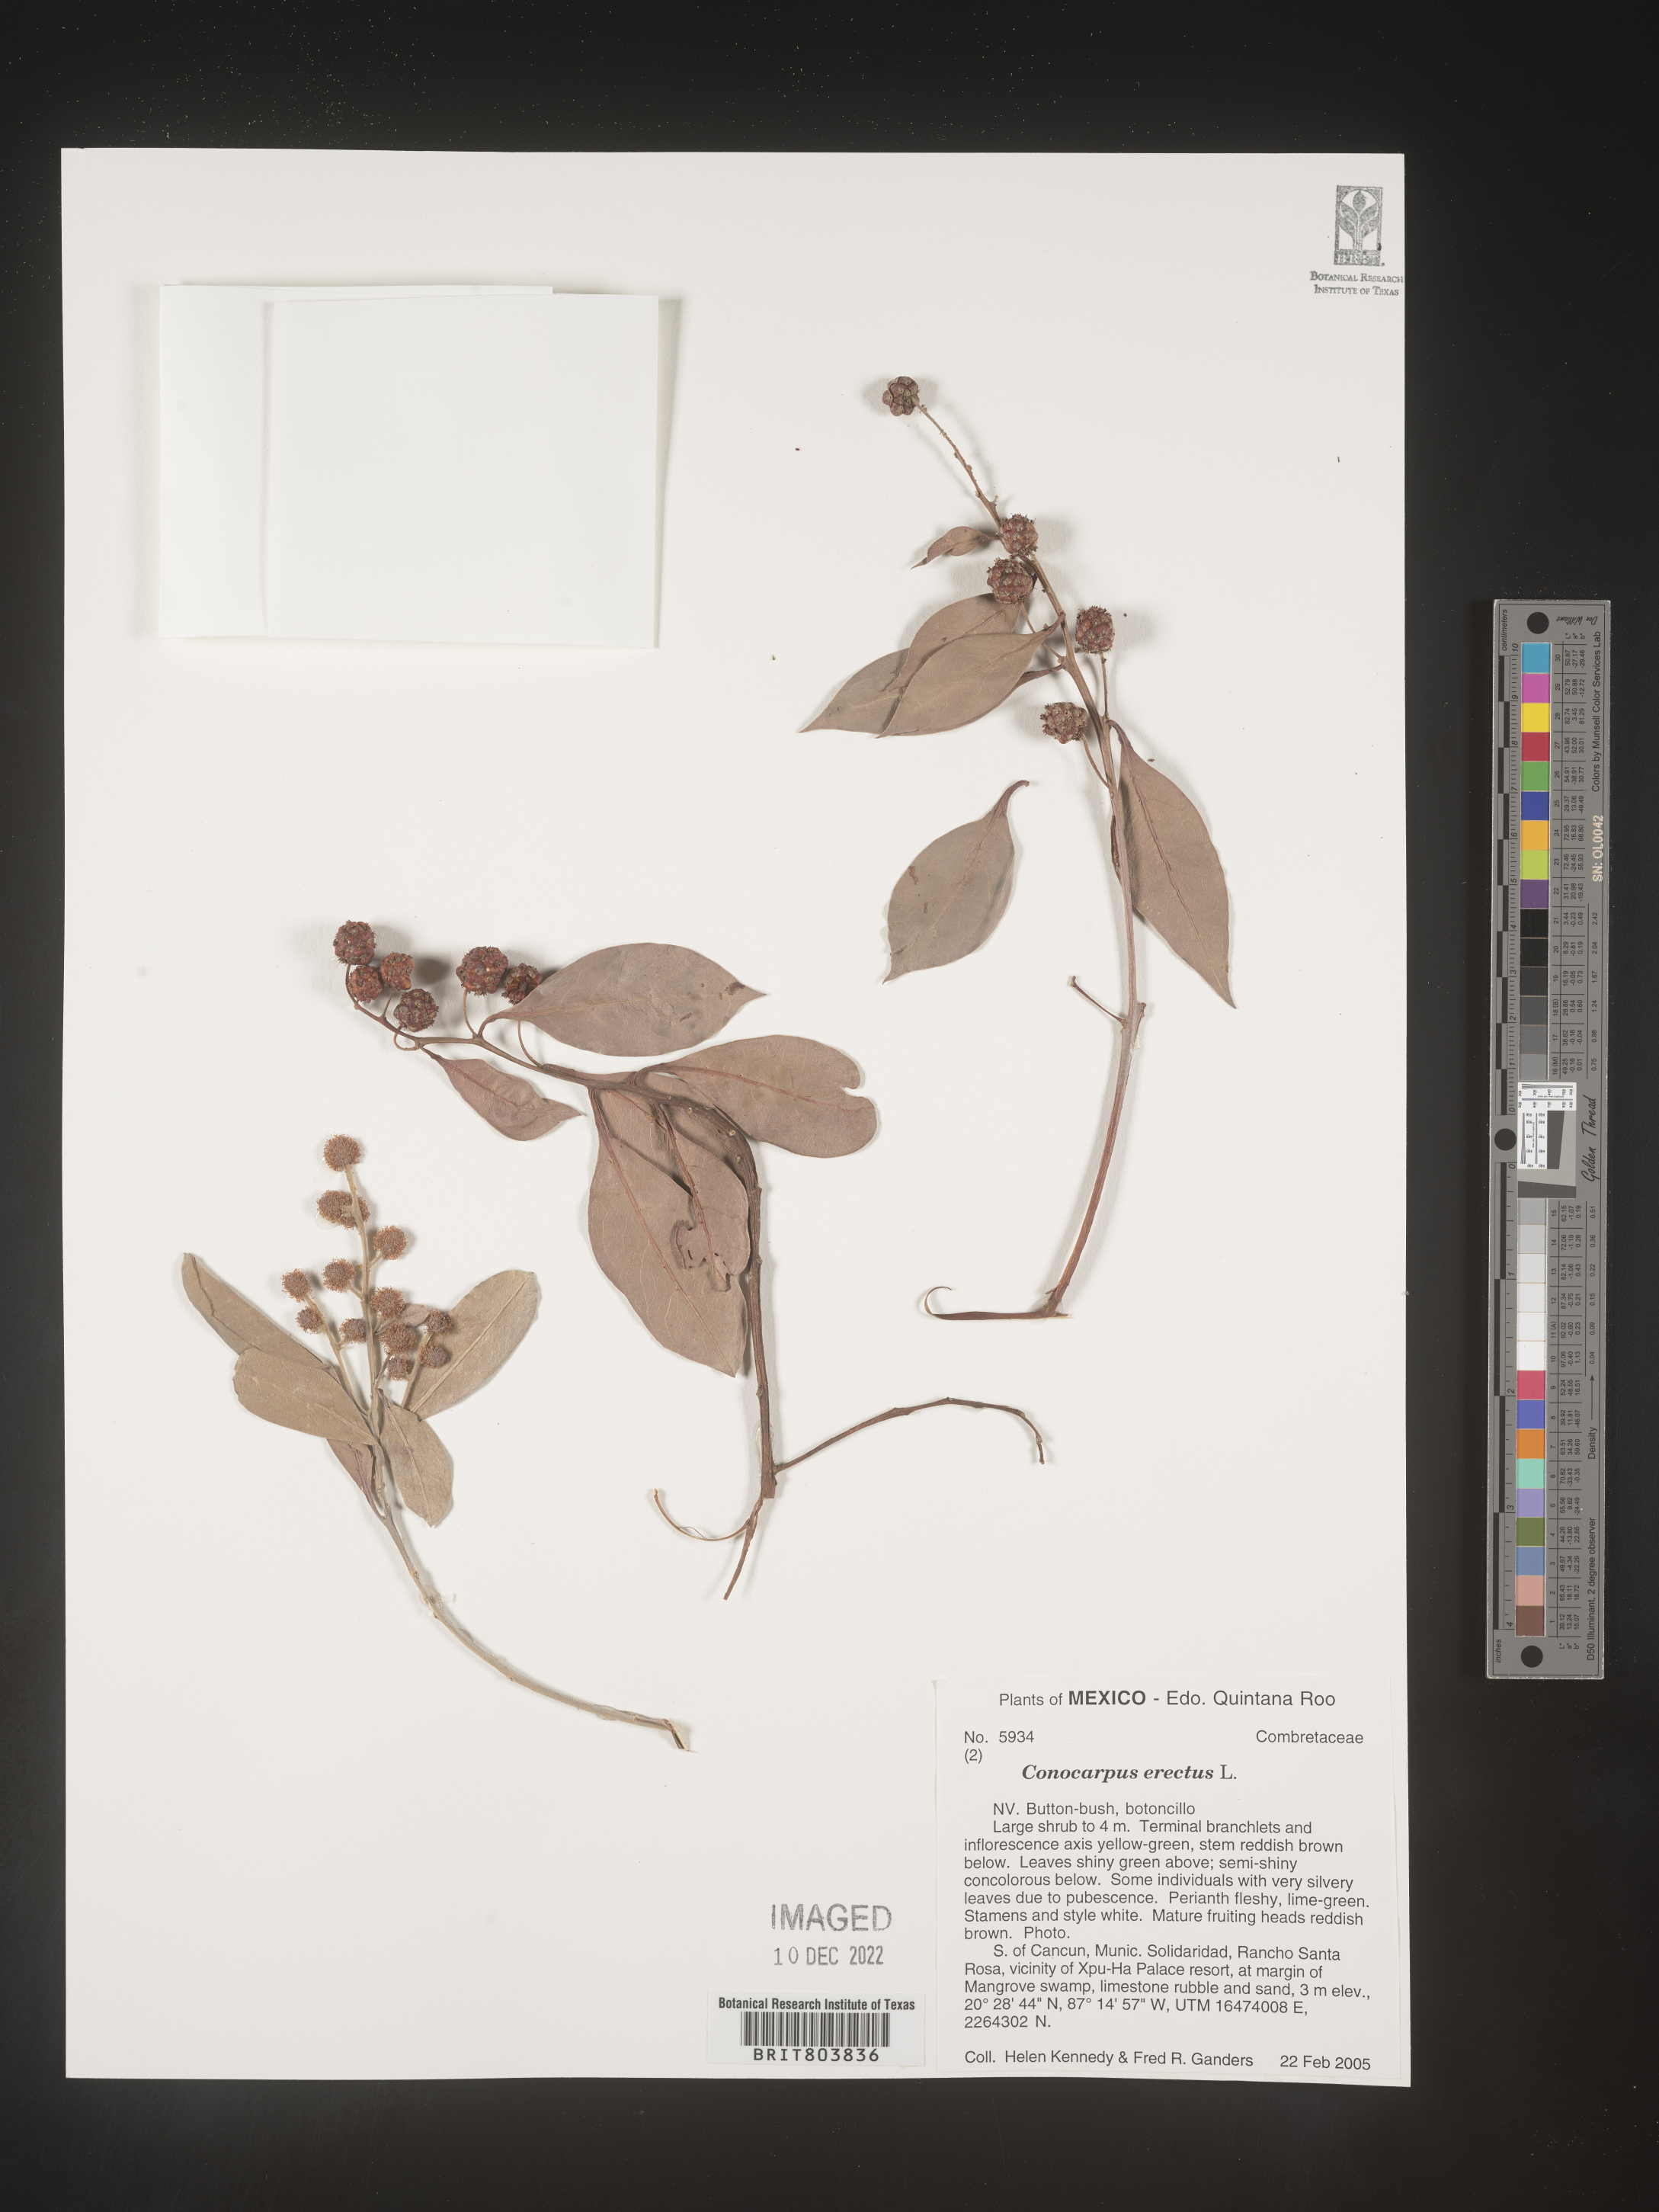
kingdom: Plantae
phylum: Tracheophyta
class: Magnoliopsida
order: Myrtales
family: Combretaceae
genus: Conocarpus
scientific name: Conocarpus
